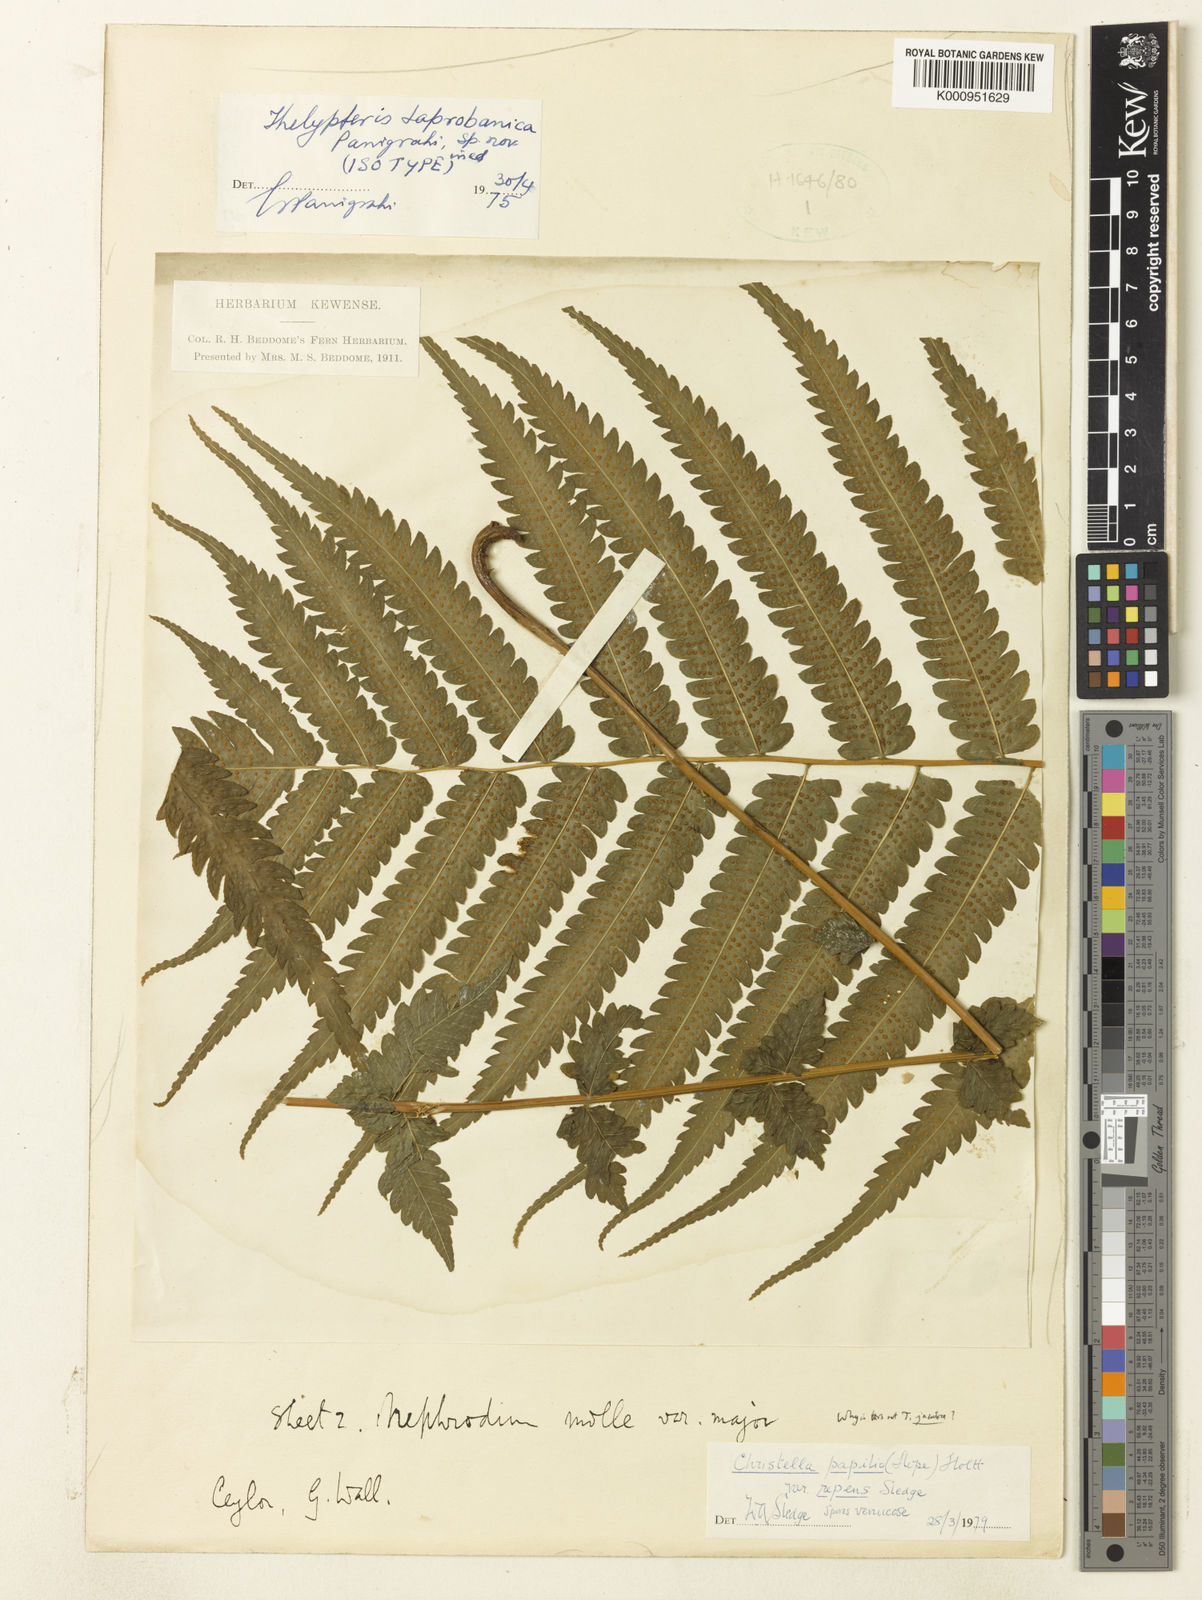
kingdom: Plantae
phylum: Tracheophyta
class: Polypodiopsida
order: Polypodiales
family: Thelypteridaceae
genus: Christella
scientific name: Christella dentata
